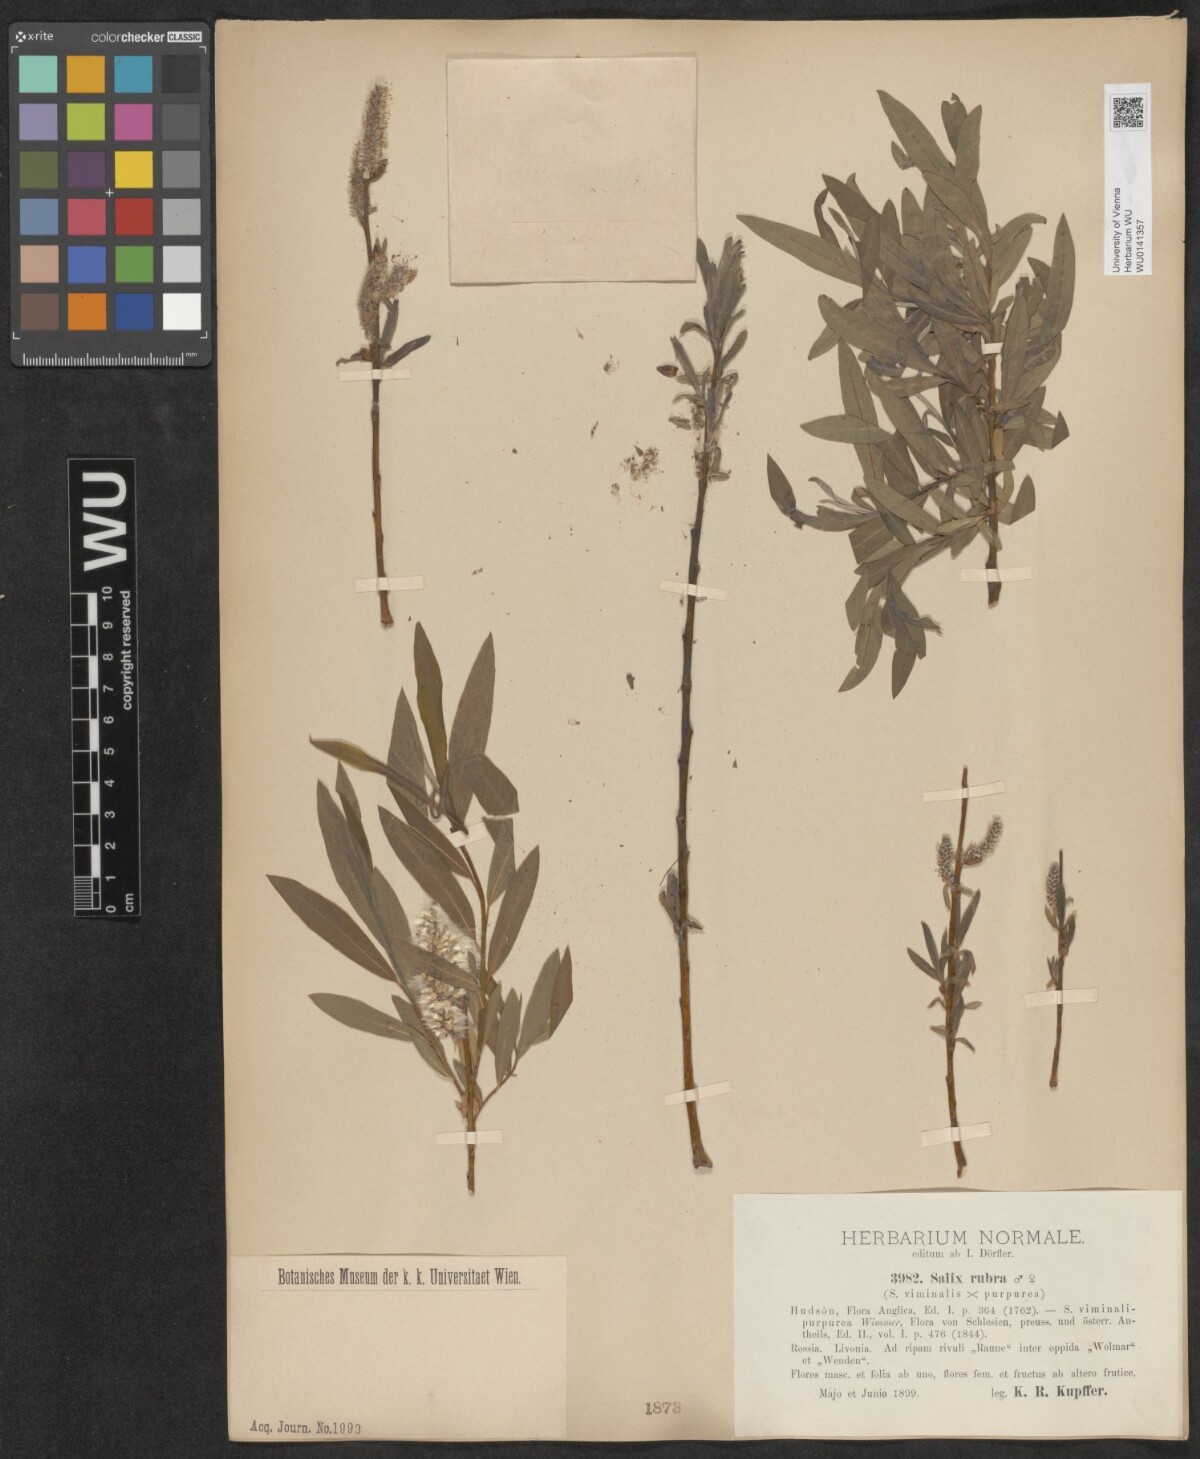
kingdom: Plantae
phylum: Tracheophyta
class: Magnoliopsida
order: Malpighiales
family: Salicaceae
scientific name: Salicaceae
